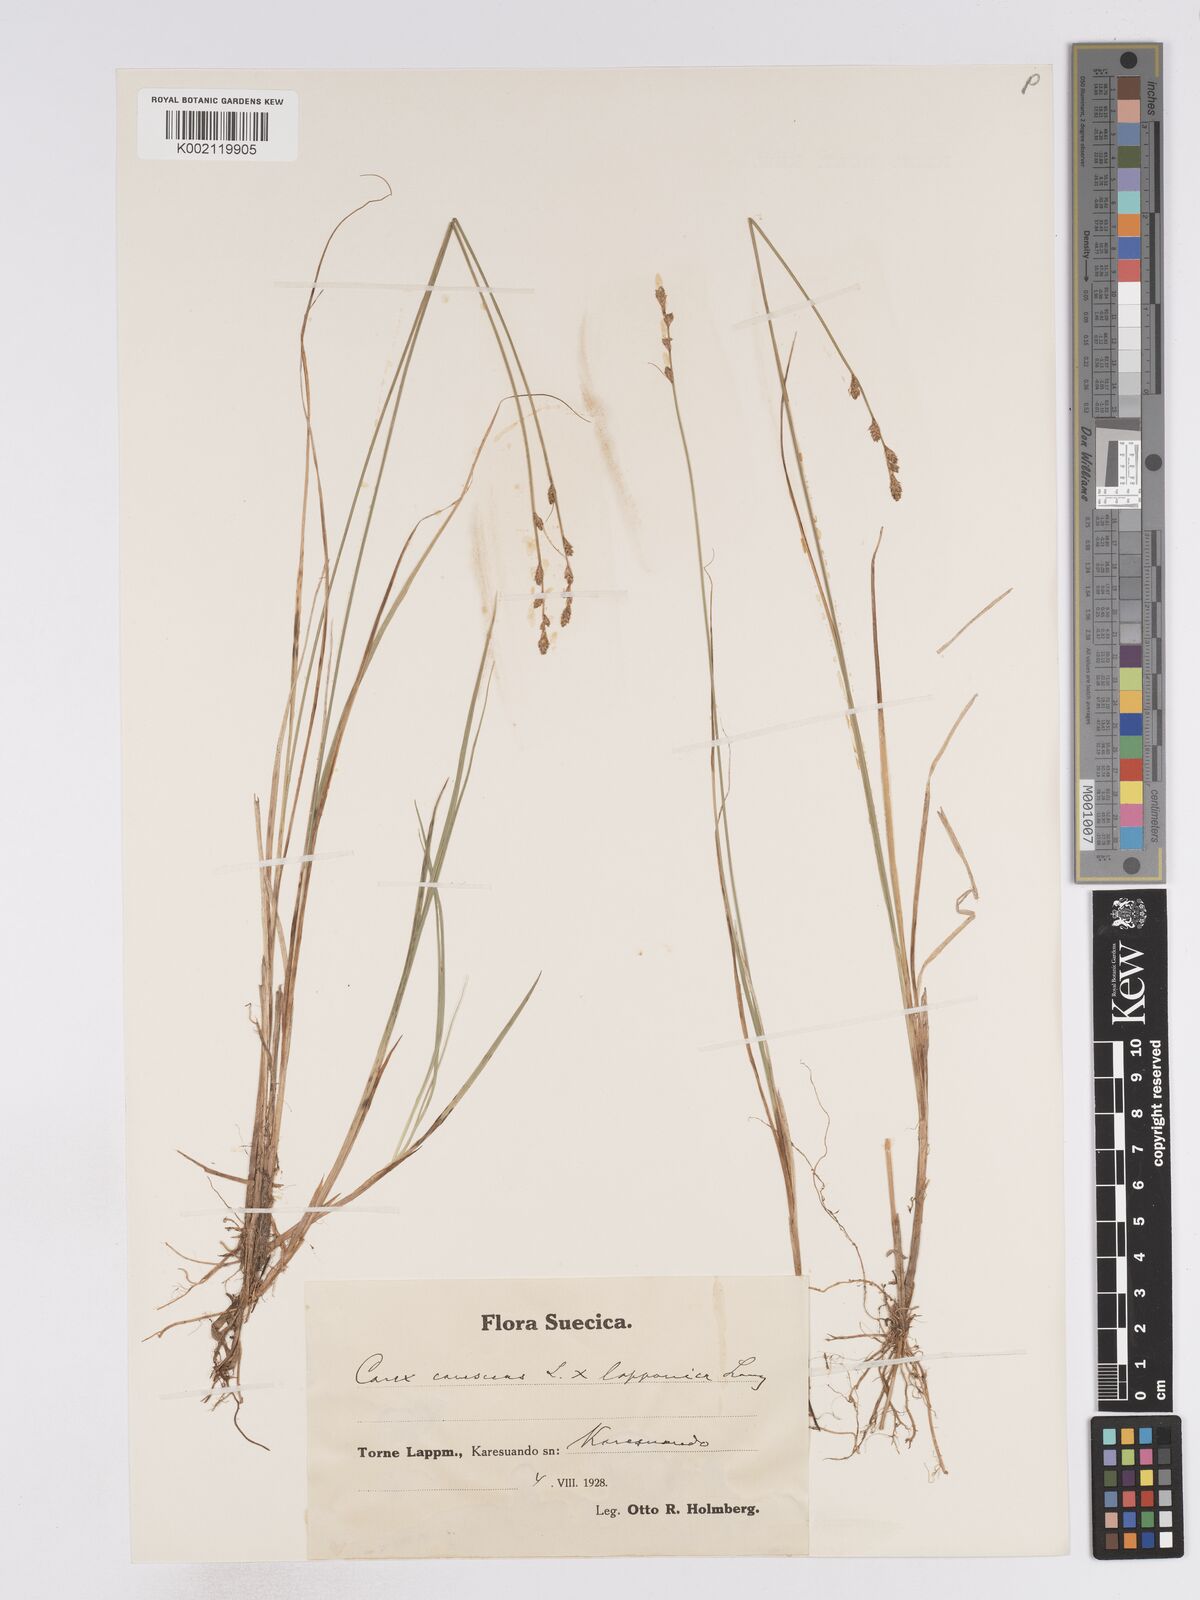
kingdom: Plantae
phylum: Tracheophyta
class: Liliopsida
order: Poales
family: Cyperaceae
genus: Carex
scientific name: Carex curta
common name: White sedge
